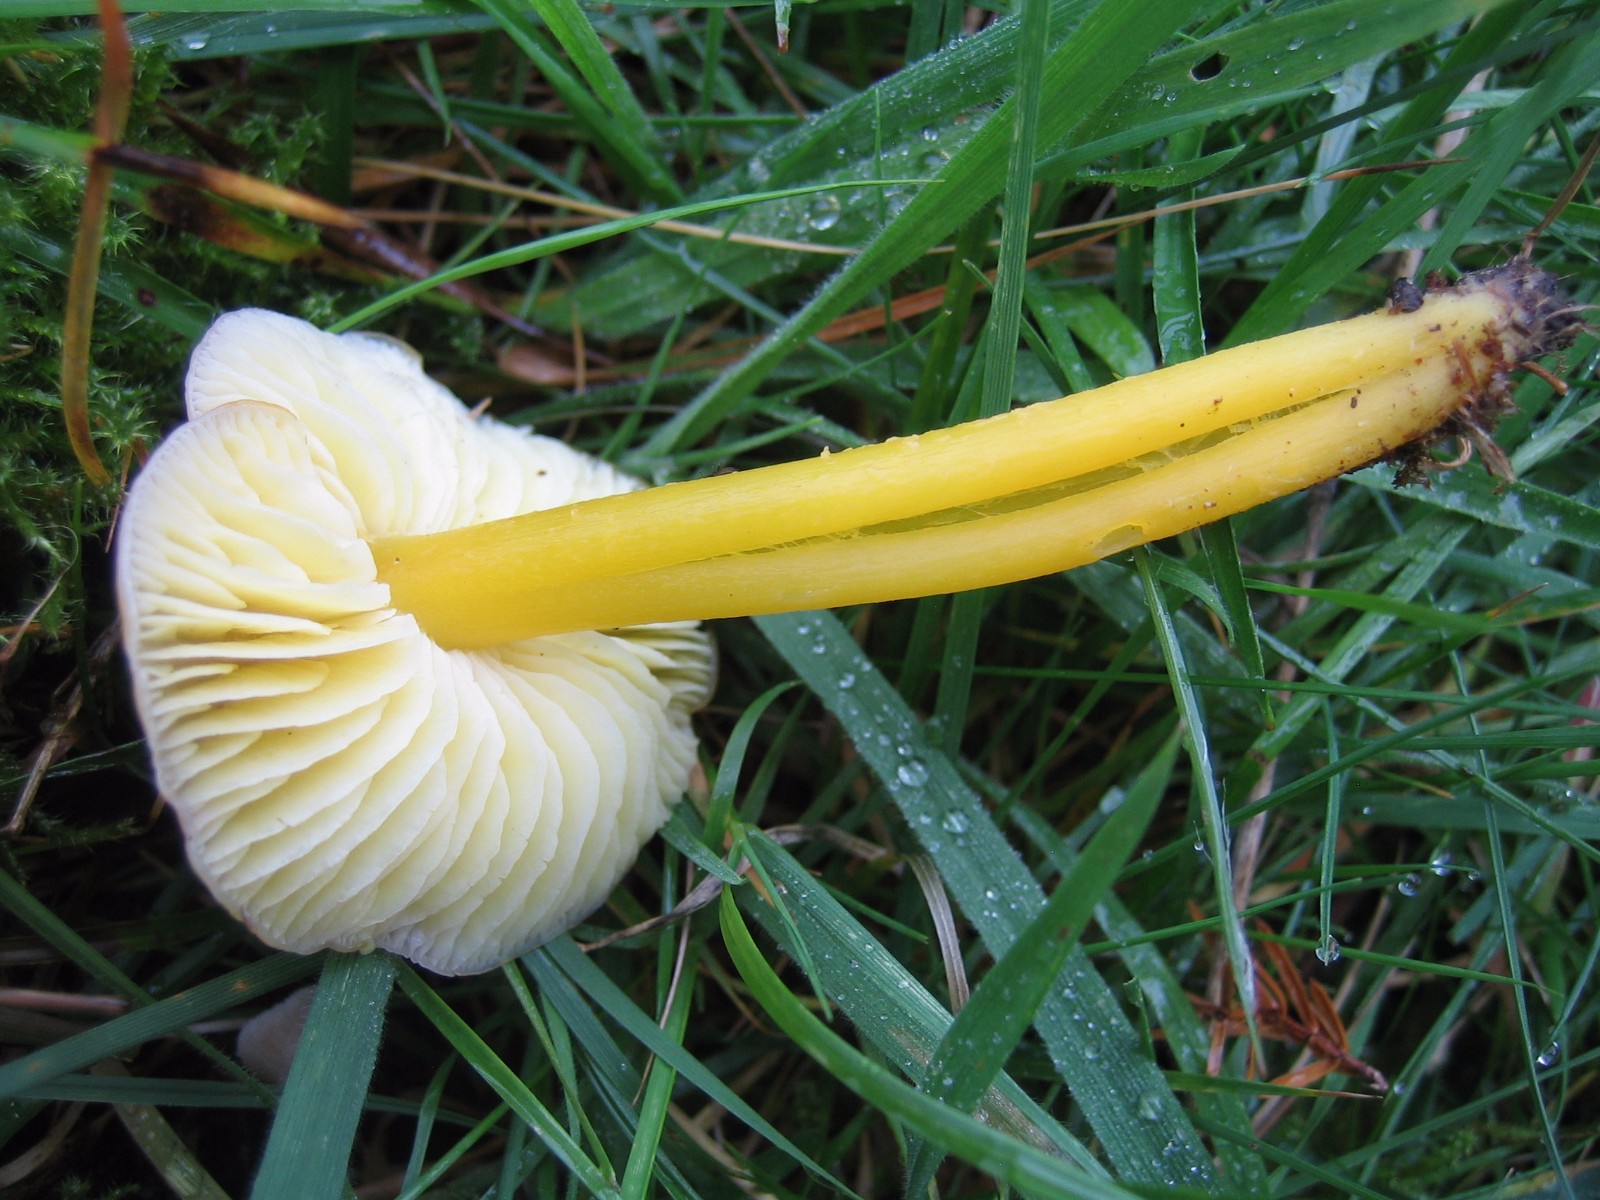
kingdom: Fungi
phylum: Basidiomycota
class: Agaricomycetes
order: Agaricales
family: Hygrophoraceae
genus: Hygrocybe
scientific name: Hygrocybe chlorophana
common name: gul vokshat
